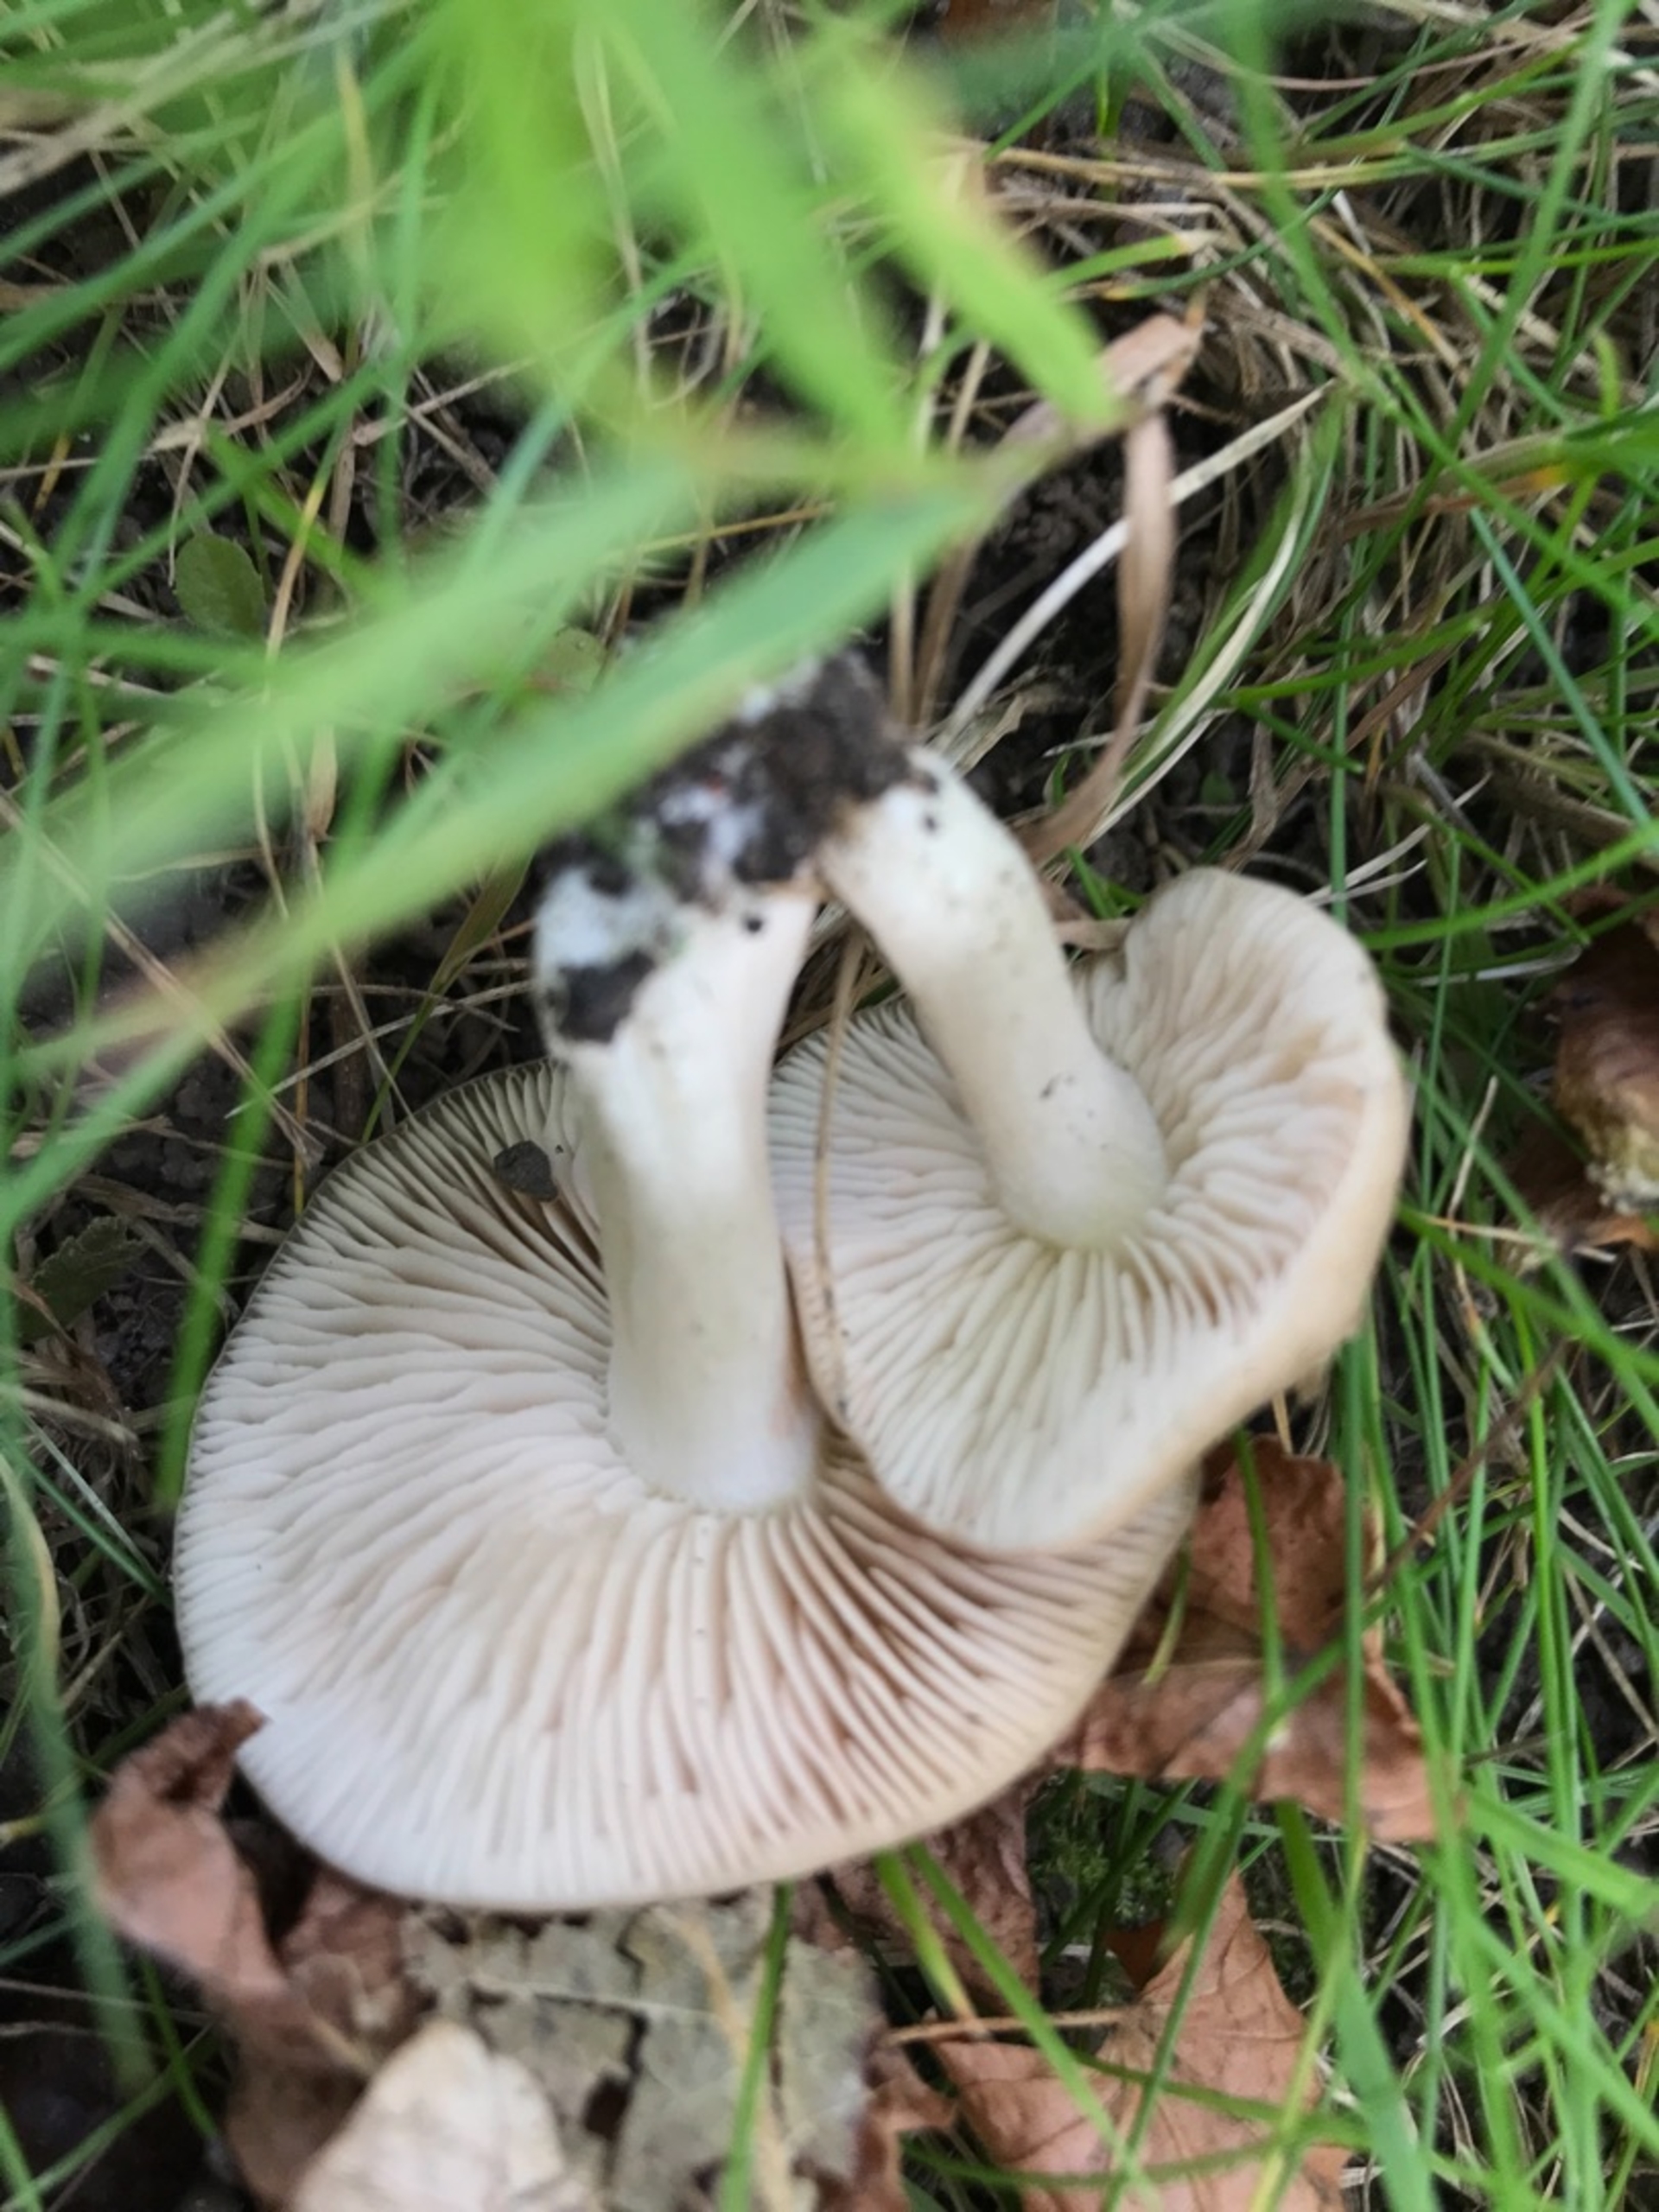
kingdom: Fungi
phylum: Basidiomycota
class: Agaricomycetes
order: Agaricales
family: Entolomataceae
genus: Entoloma
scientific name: Entoloma
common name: Rødblad
